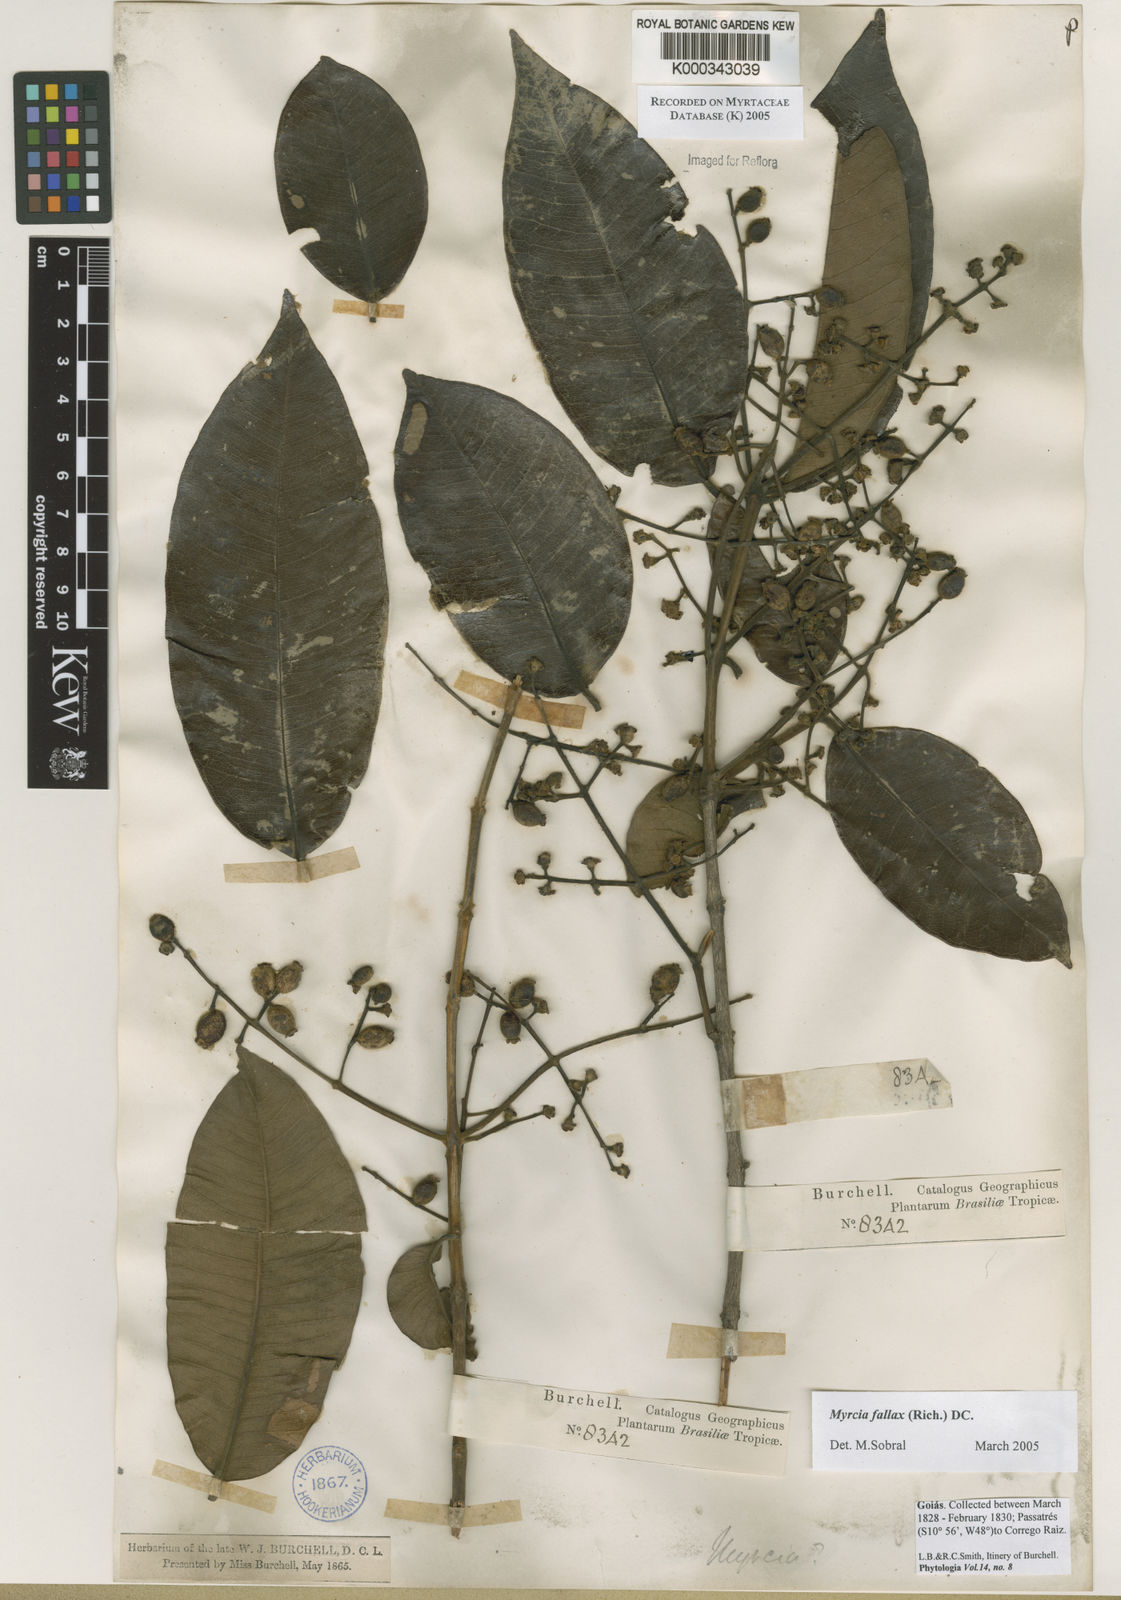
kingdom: Plantae
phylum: Tracheophyta
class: Magnoliopsida
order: Myrtales
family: Myrtaceae
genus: Myrcia
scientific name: Myrcia splendens
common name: Surinam cherry
